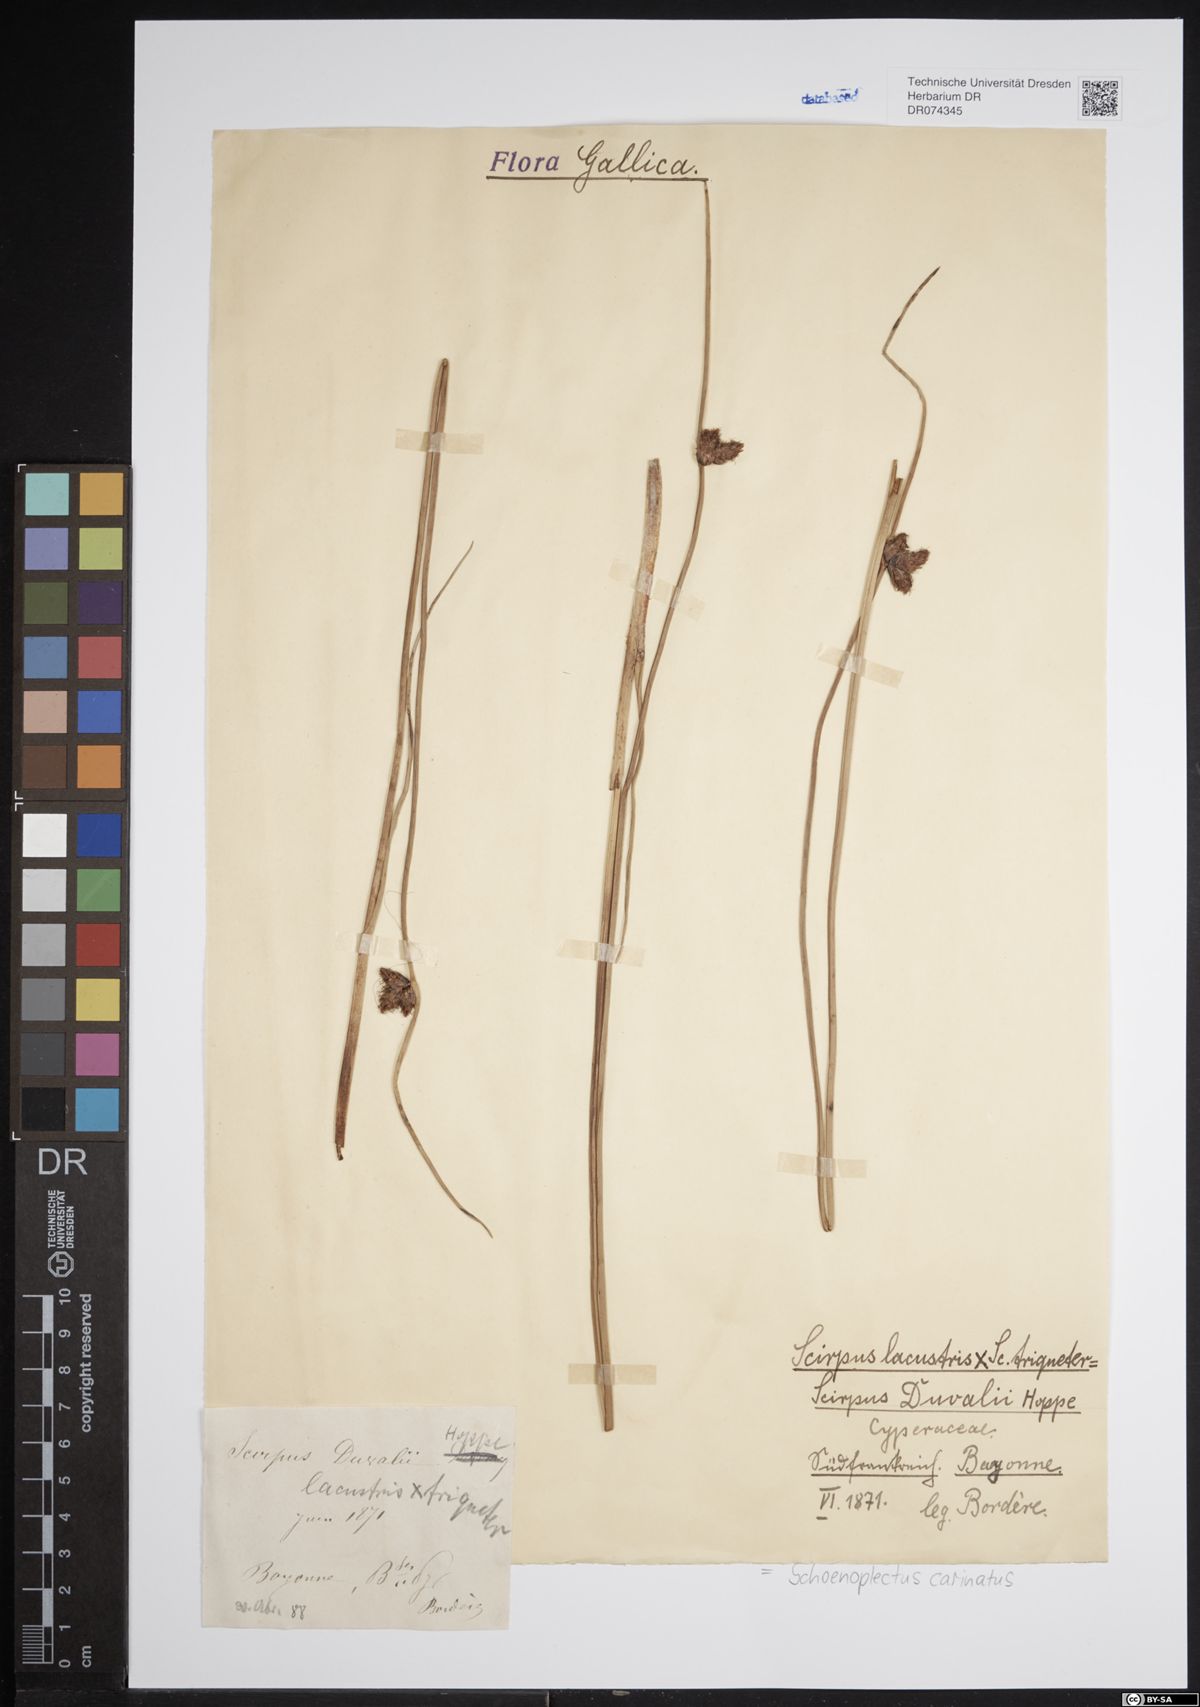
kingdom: Plantae
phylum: Tracheophyta
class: Liliopsida
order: Poales
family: Cyperaceae
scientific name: Cyperaceae
